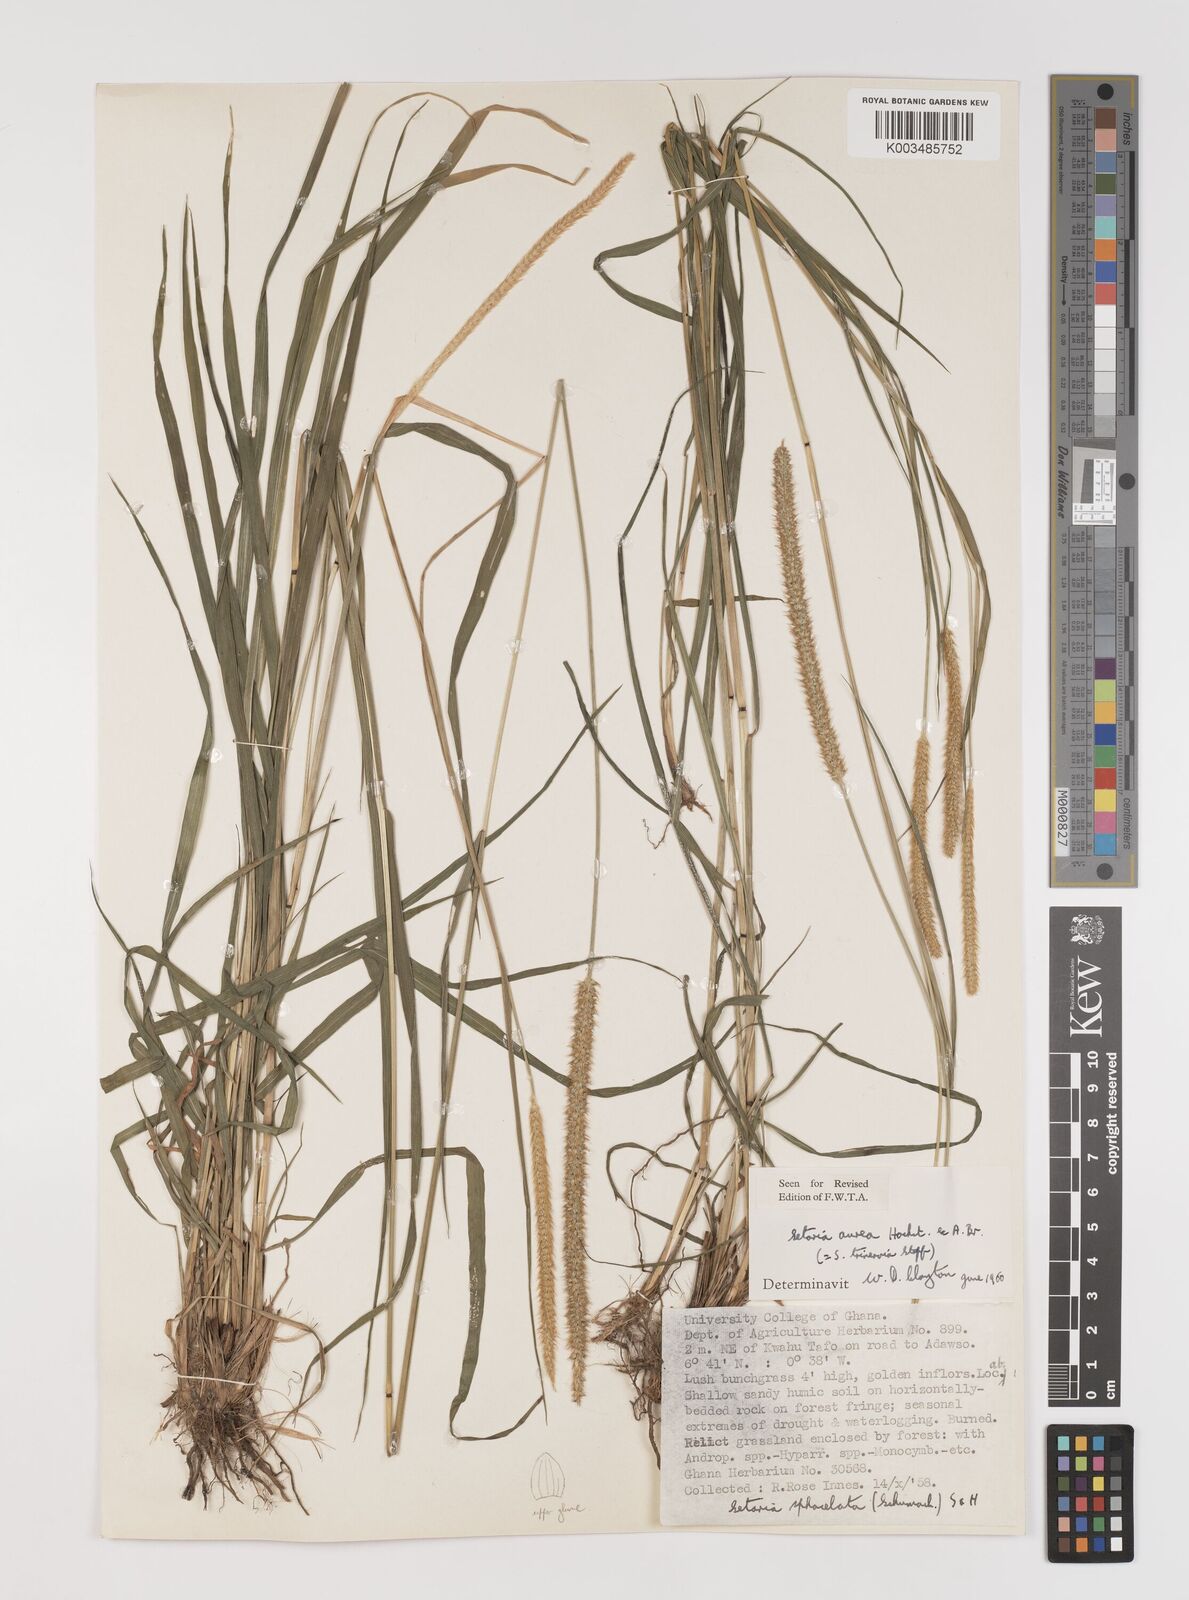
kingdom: Plantae
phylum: Tracheophyta
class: Liliopsida
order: Poales
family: Poaceae
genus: Setaria
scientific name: Setaria sphacelata
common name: African bristlegrass
